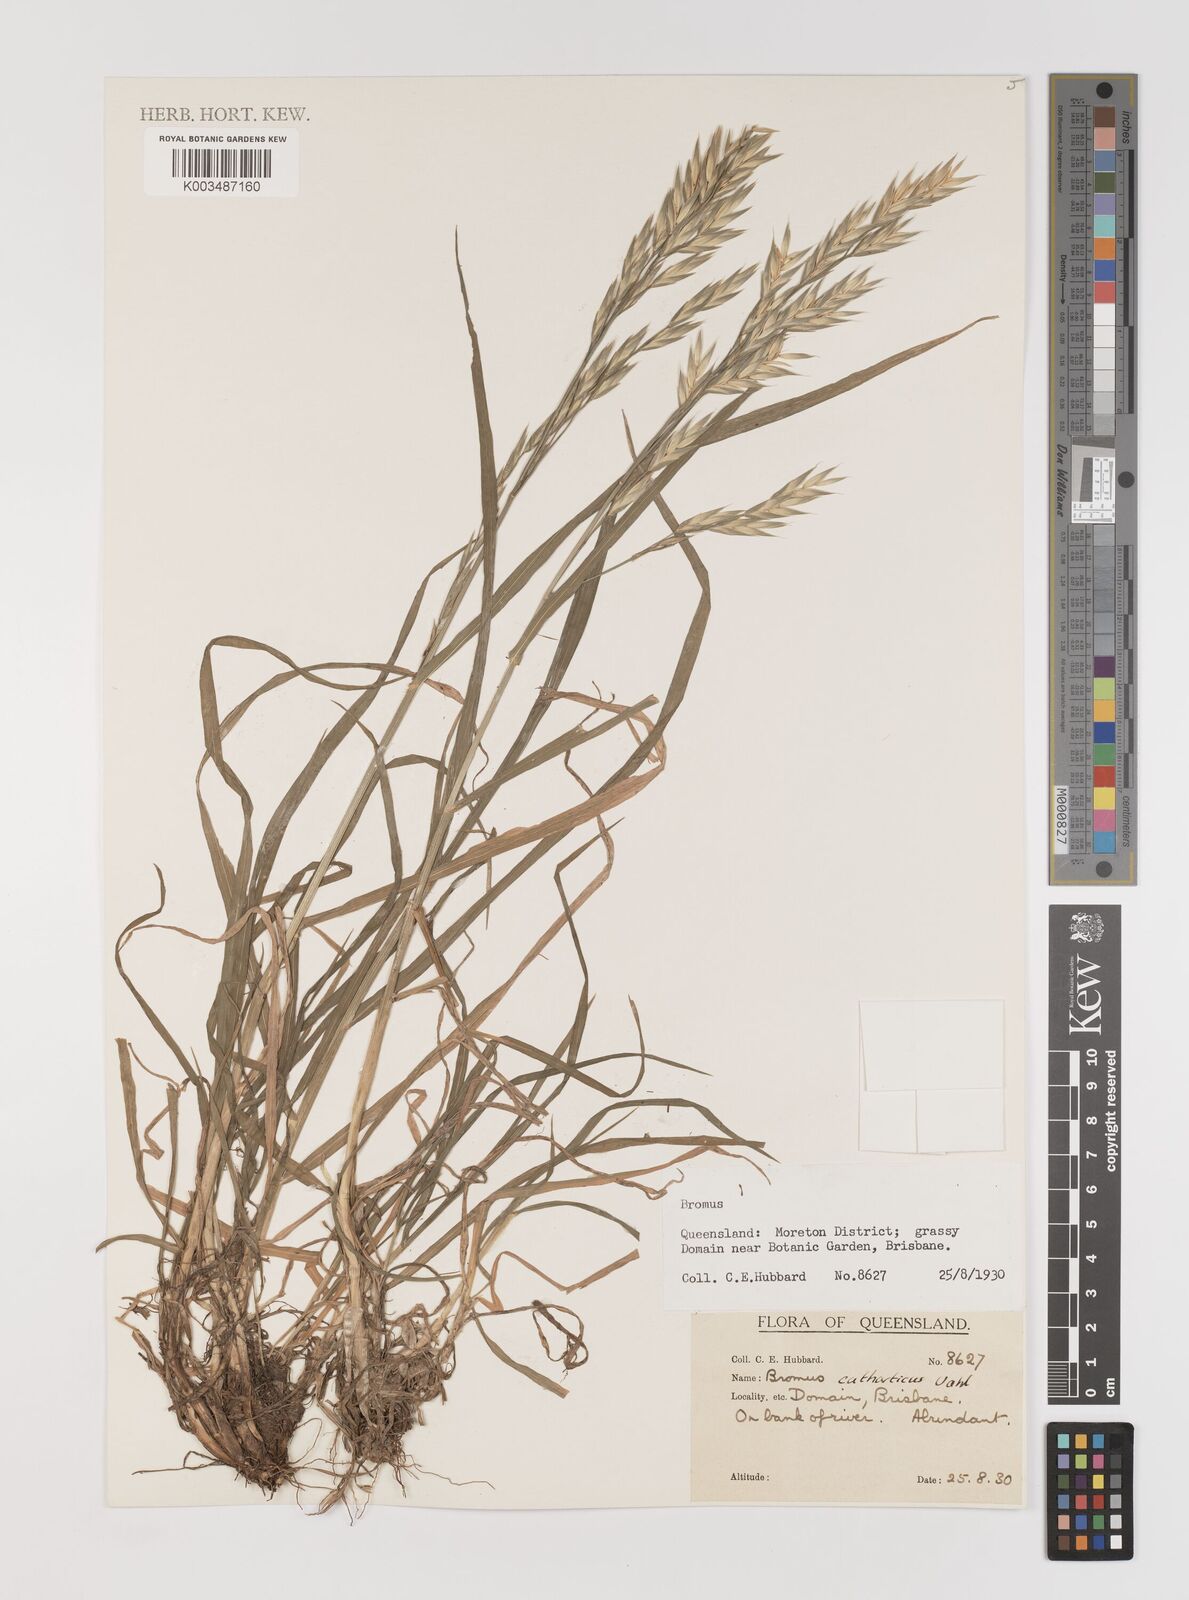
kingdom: Plantae
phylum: Tracheophyta
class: Liliopsida
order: Poales
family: Poaceae
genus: Bromus
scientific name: Bromus catharticus
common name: Rescuegrass
